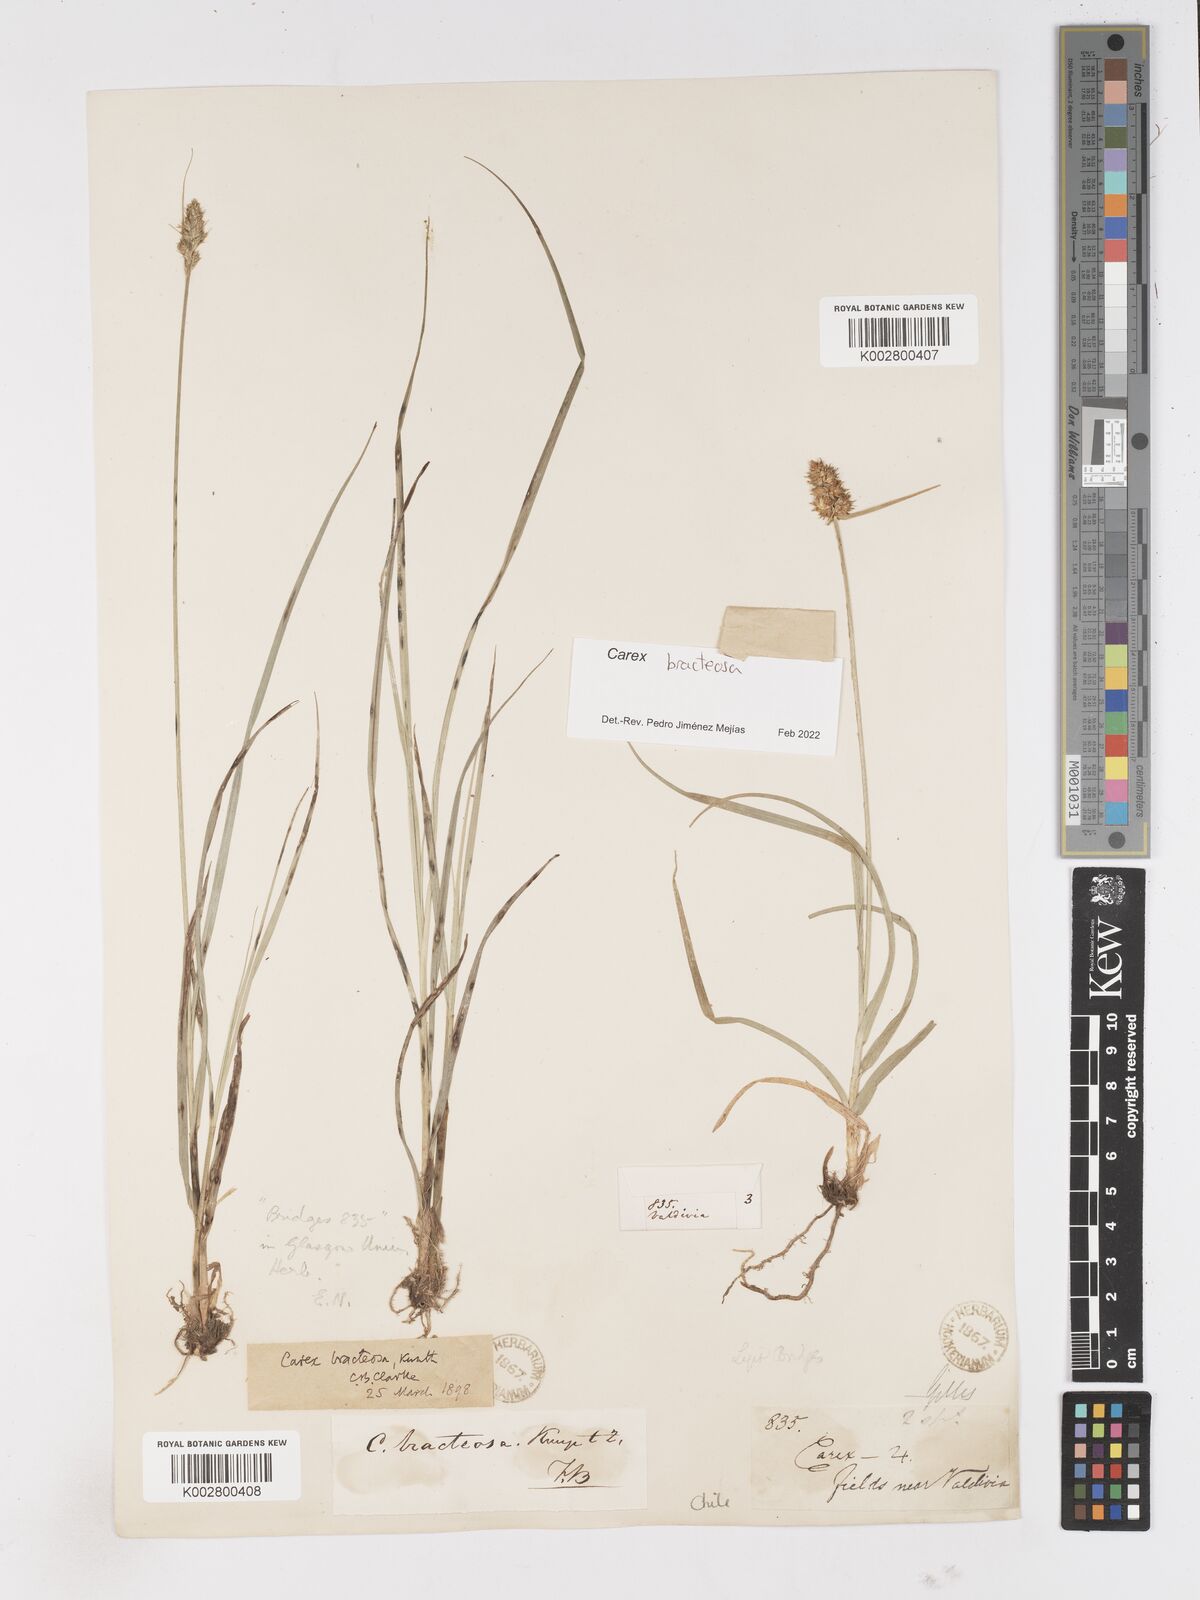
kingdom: Plantae
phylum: Tracheophyta
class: Liliopsida
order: Poales
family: Cyperaceae
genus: Carex
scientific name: Carex bracteosa
